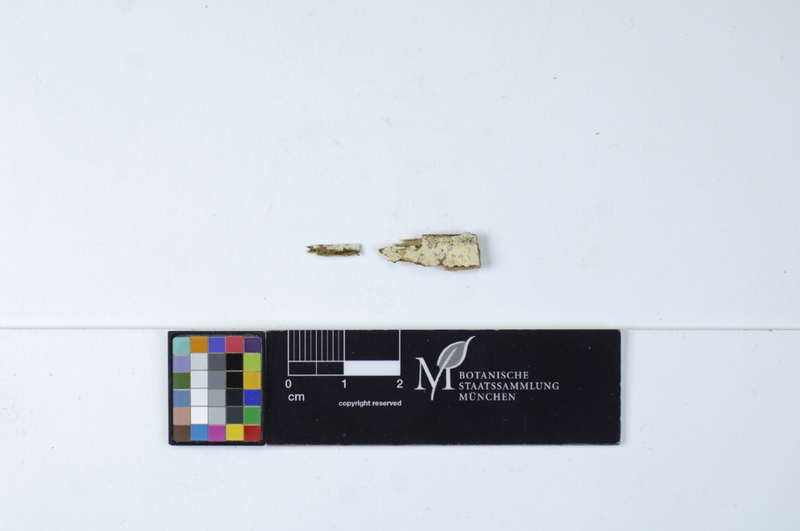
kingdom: Fungi
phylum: Basidiomycota
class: Agaricomycetes
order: Thelephorales
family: Thelephoraceae
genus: Tomentella
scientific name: Tomentella
